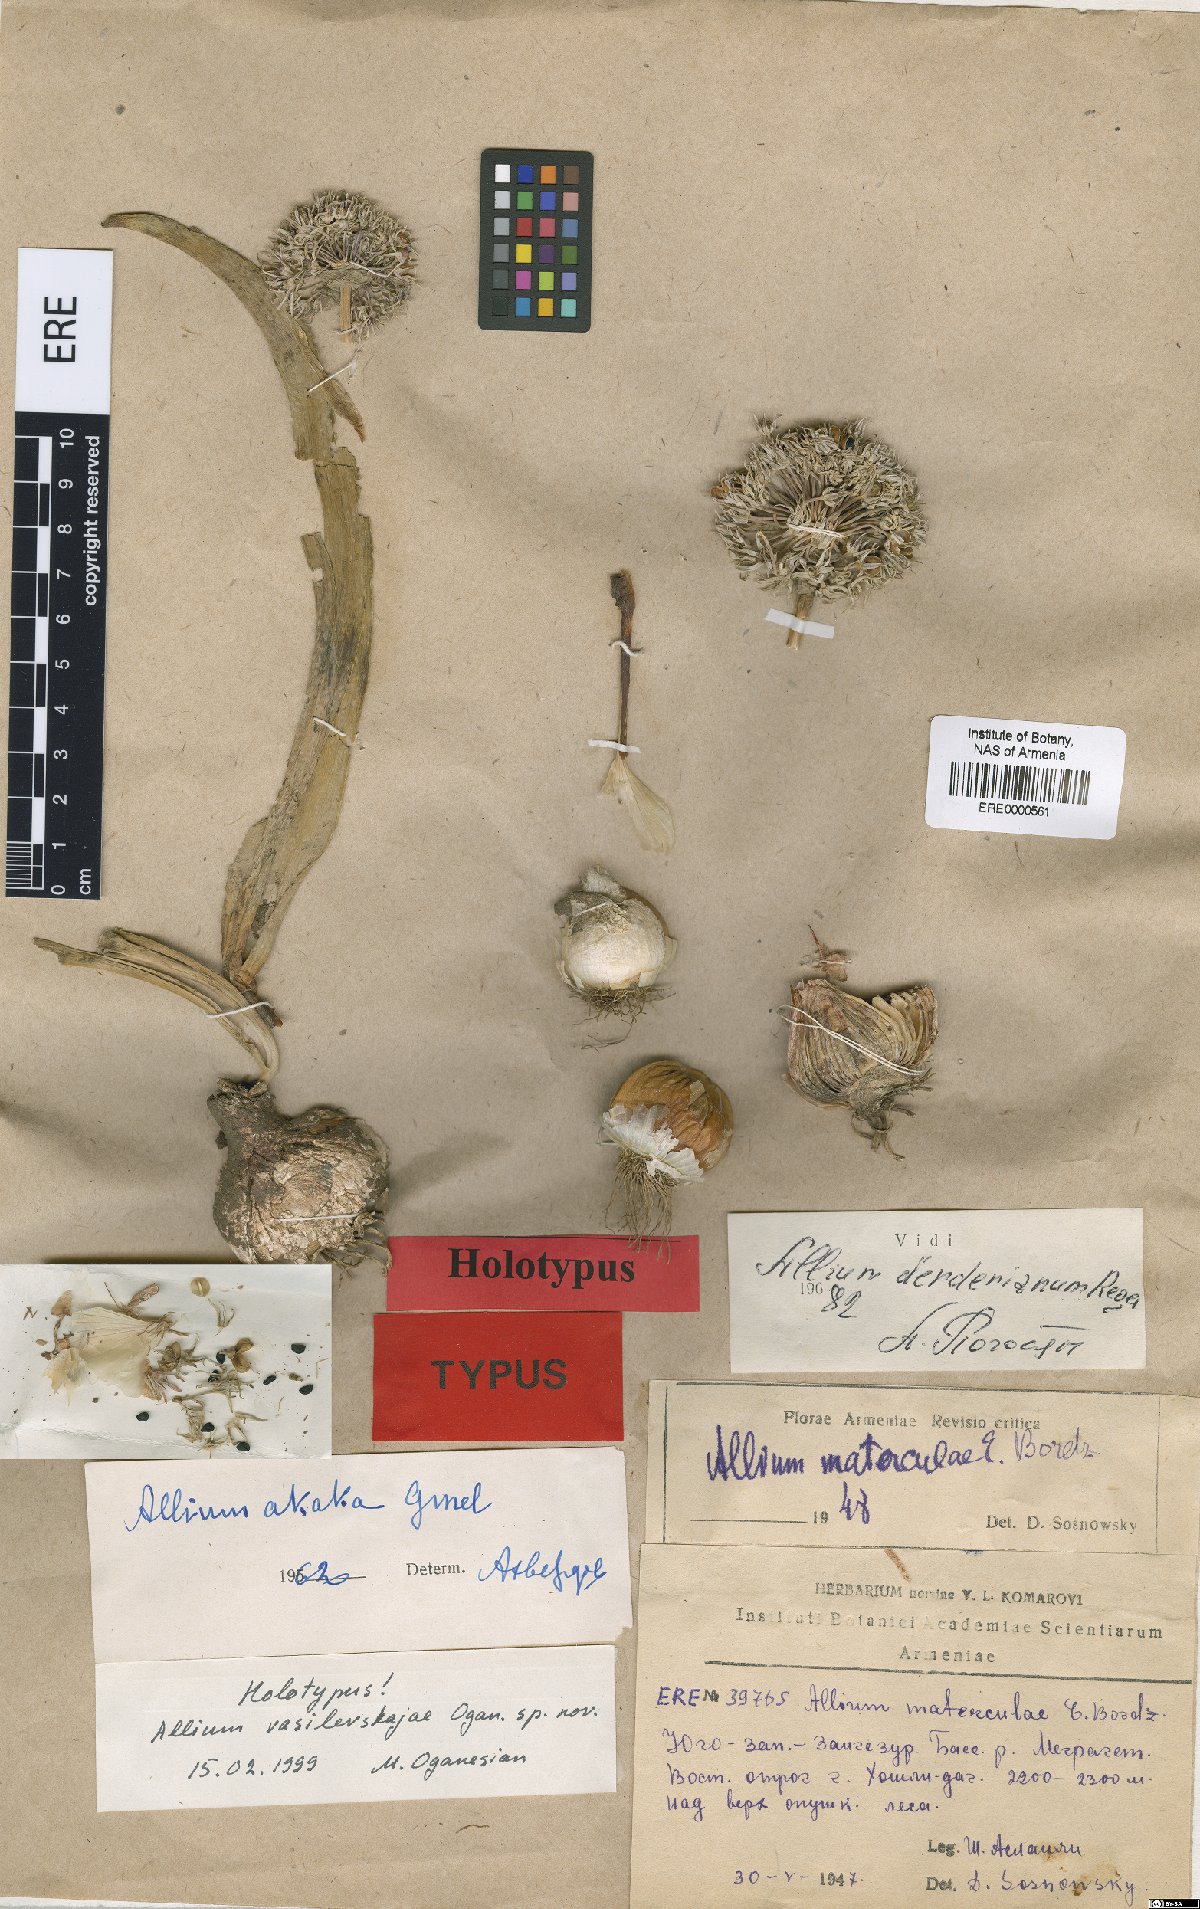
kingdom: Plantae
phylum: Tracheophyta
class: Liliopsida
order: Asparagales
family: Amaryllidaceae
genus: Allium
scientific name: Allium vasilevskajae
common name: Vasilevskaya's onion
